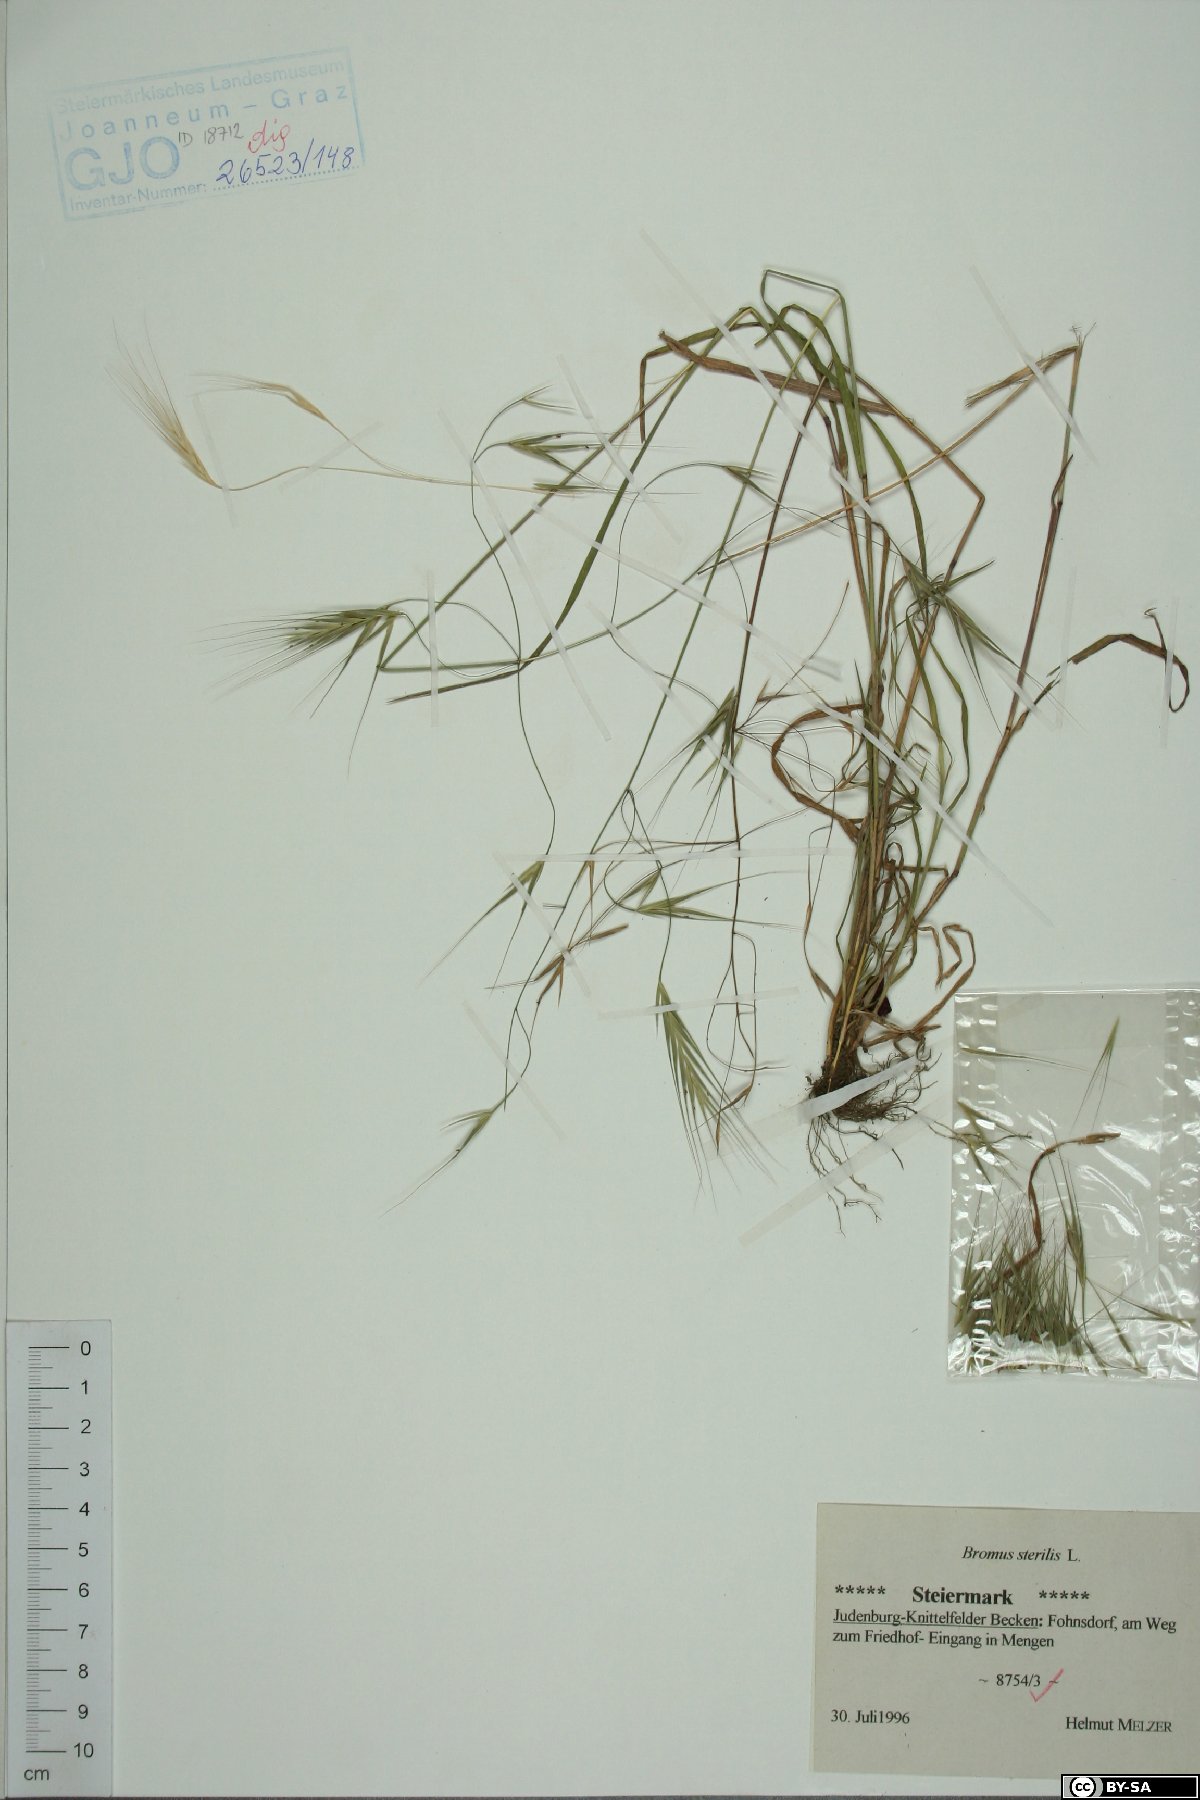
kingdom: Plantae
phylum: Tracheophyta
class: Liliopsida
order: Poales
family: Poaceae
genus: Bromus
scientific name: Bromus sterilis
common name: Poverty brome
